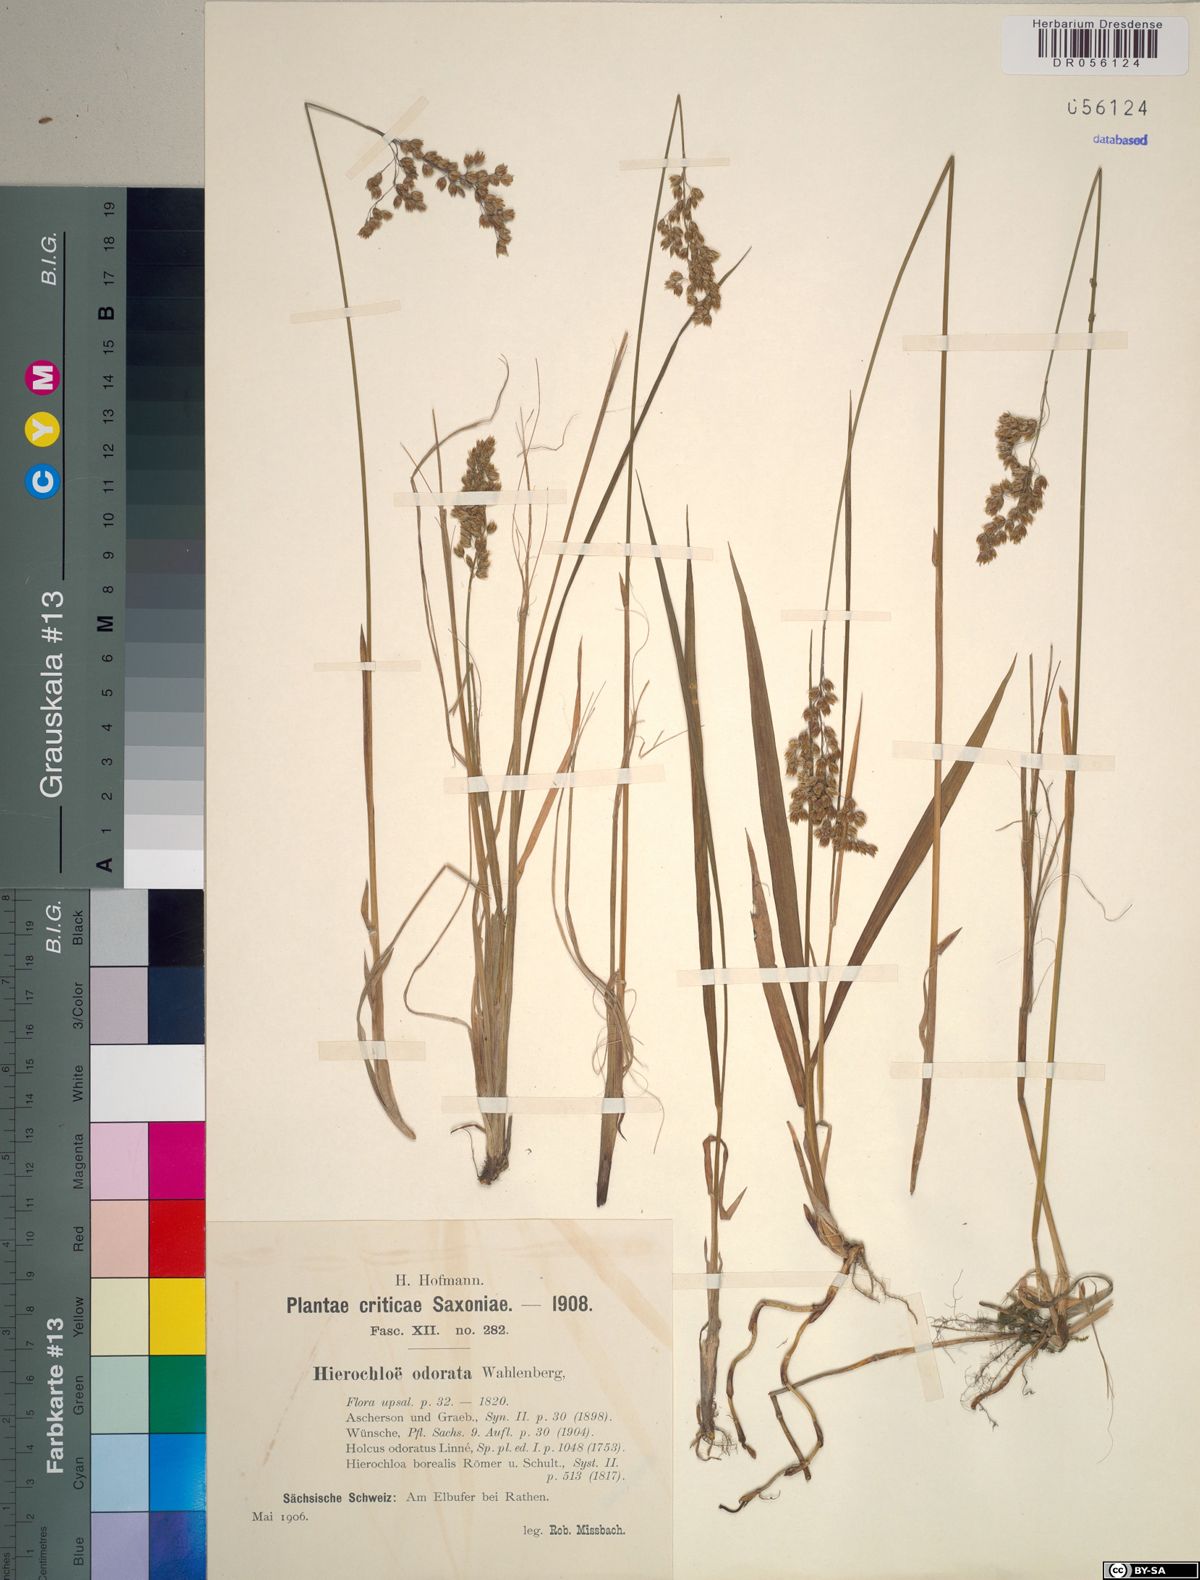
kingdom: Plantae
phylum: Tracheophyta
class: Liliopsida
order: Poales
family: Poaceae
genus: Anthoxanthum
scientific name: Anthoxanthum nitens
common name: Holy grass
